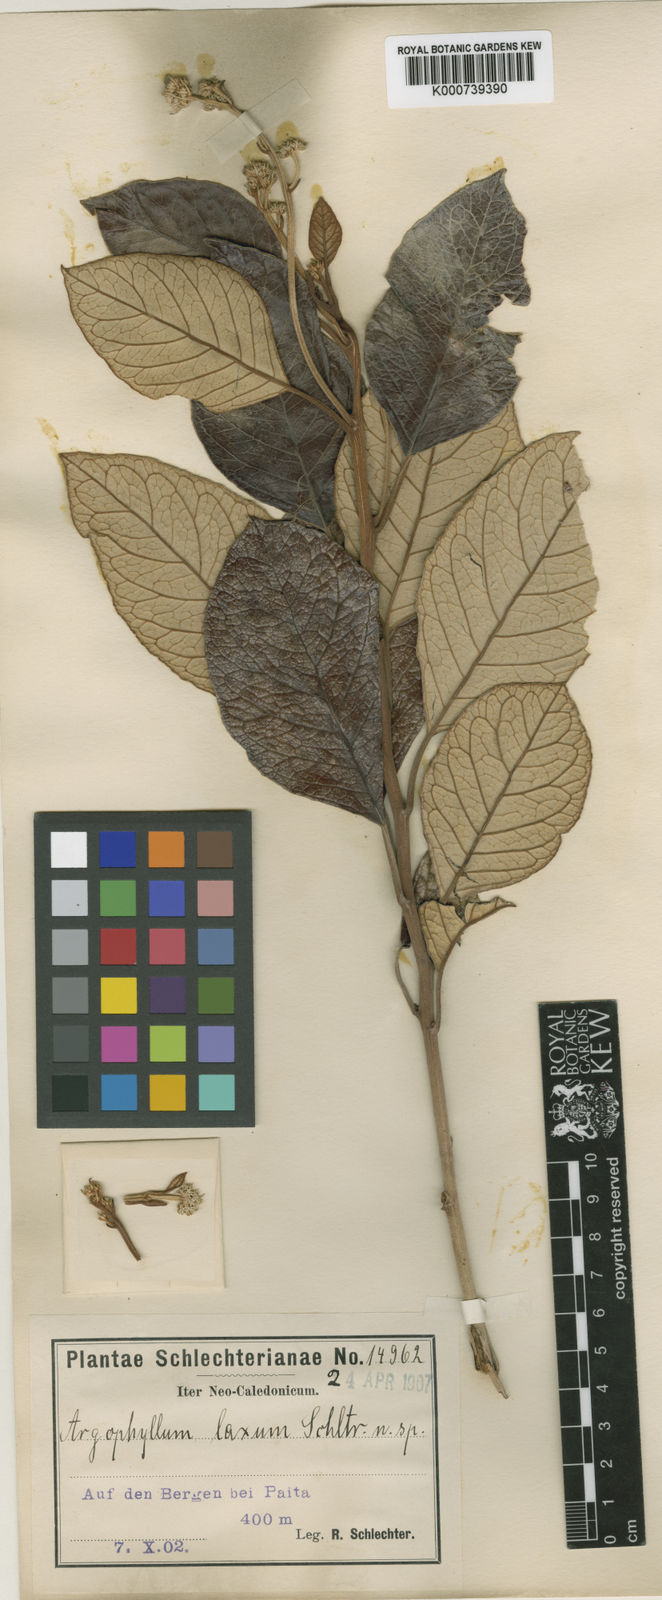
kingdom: Plantae
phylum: Tracheophyta
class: Magnoliopsida
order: Asterales
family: Argophyllaceae
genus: Argophyllum
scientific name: Argophyllum grunowii
